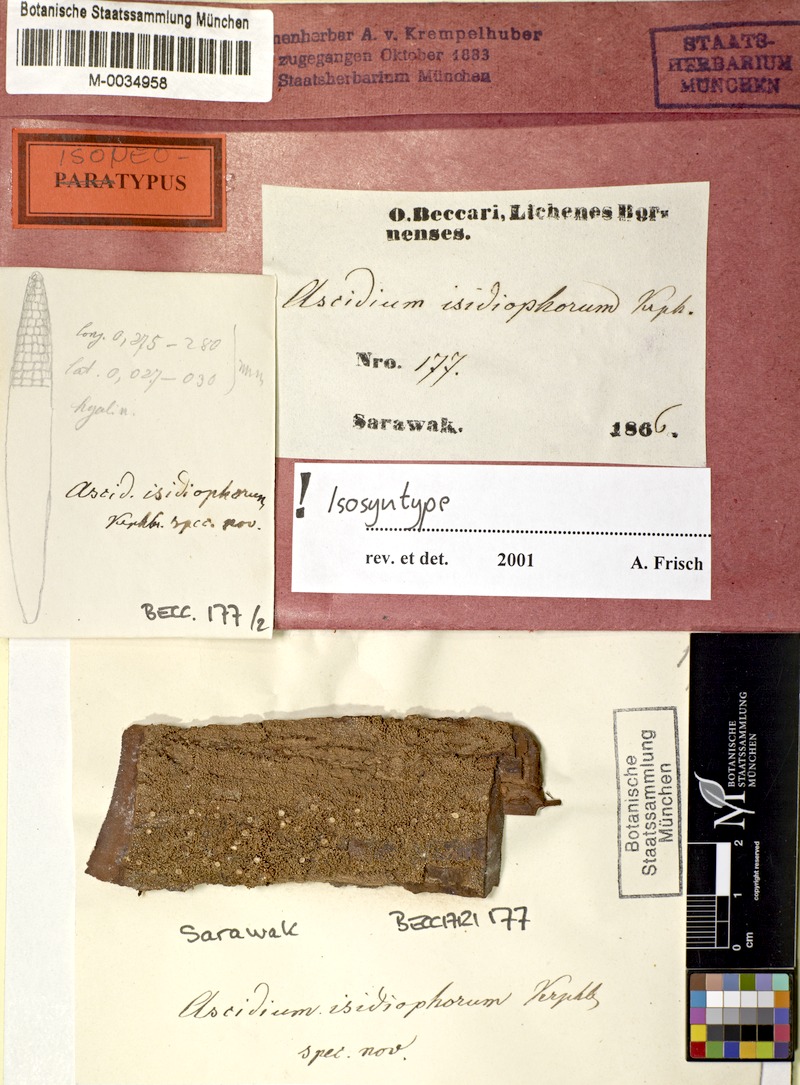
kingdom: Fungi
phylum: Ascomycota
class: Lecanoromycetes
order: Ostropales
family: Graphidaceae
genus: Thelotrema
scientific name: Thelotrema isidiophorum
